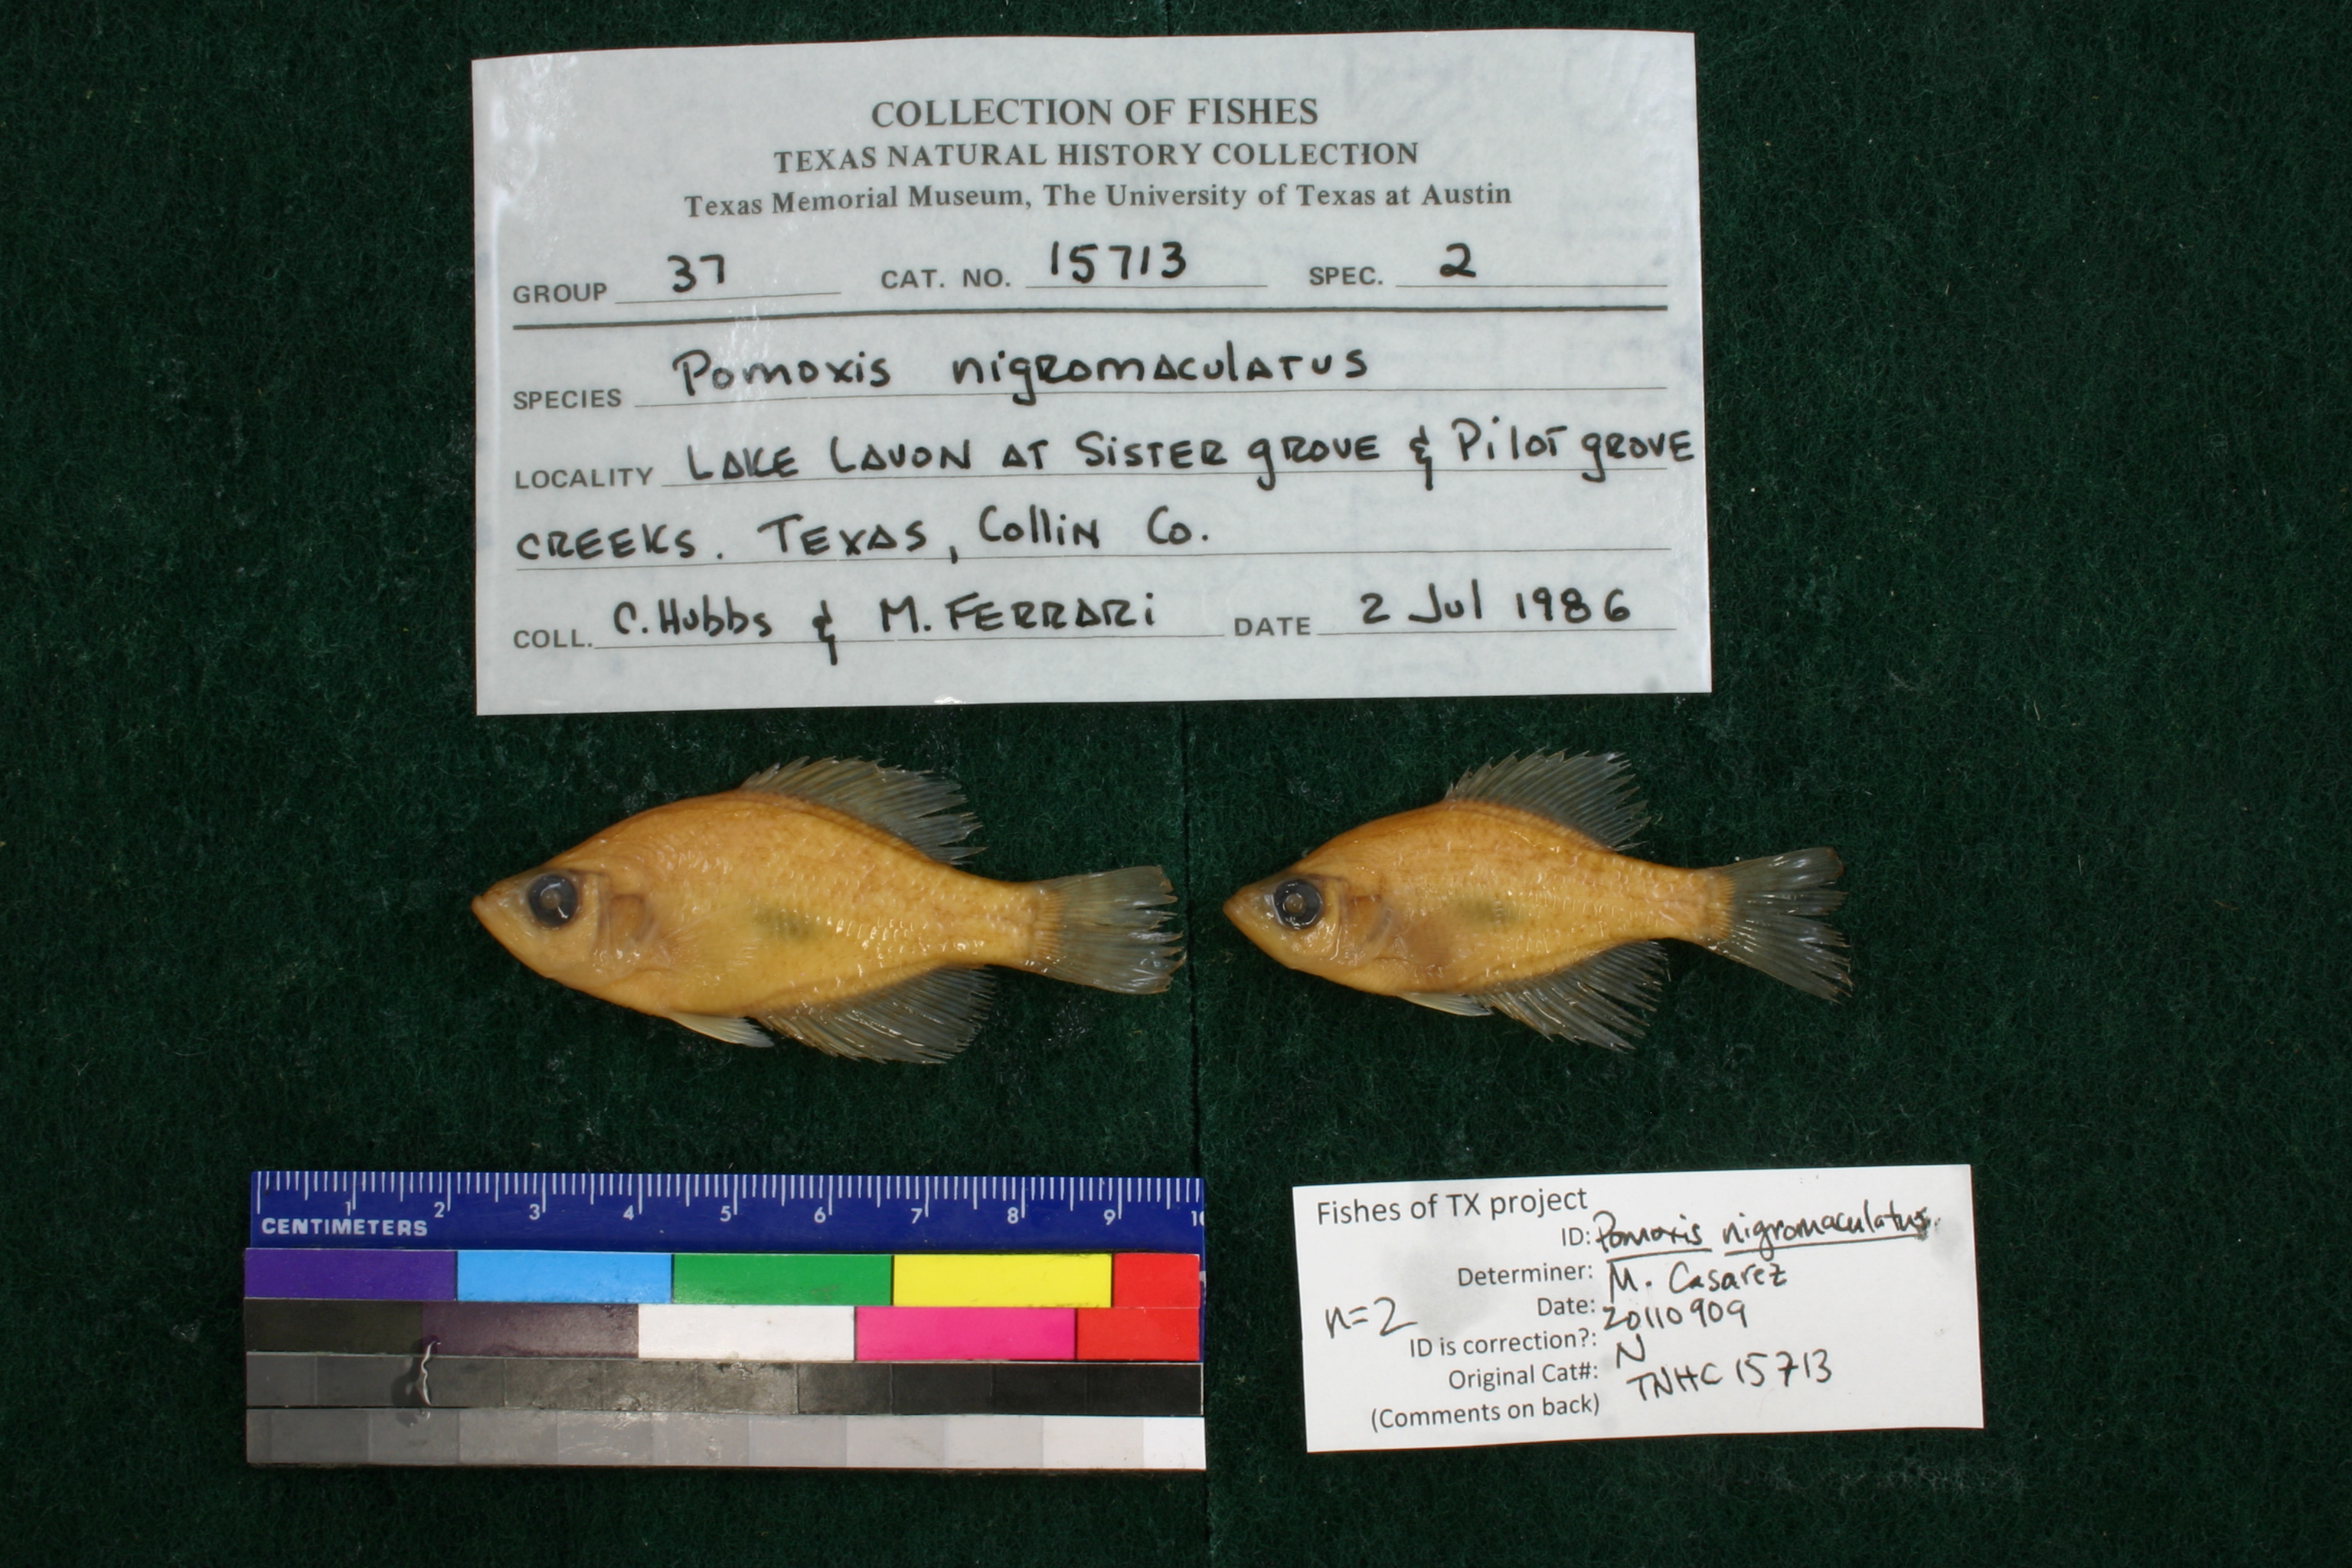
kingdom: Animalia
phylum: Chordata
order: Perciformes
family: Centrarchidae
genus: Pomoxis
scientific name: Pomoxis nigromaculatus
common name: Black crappie
